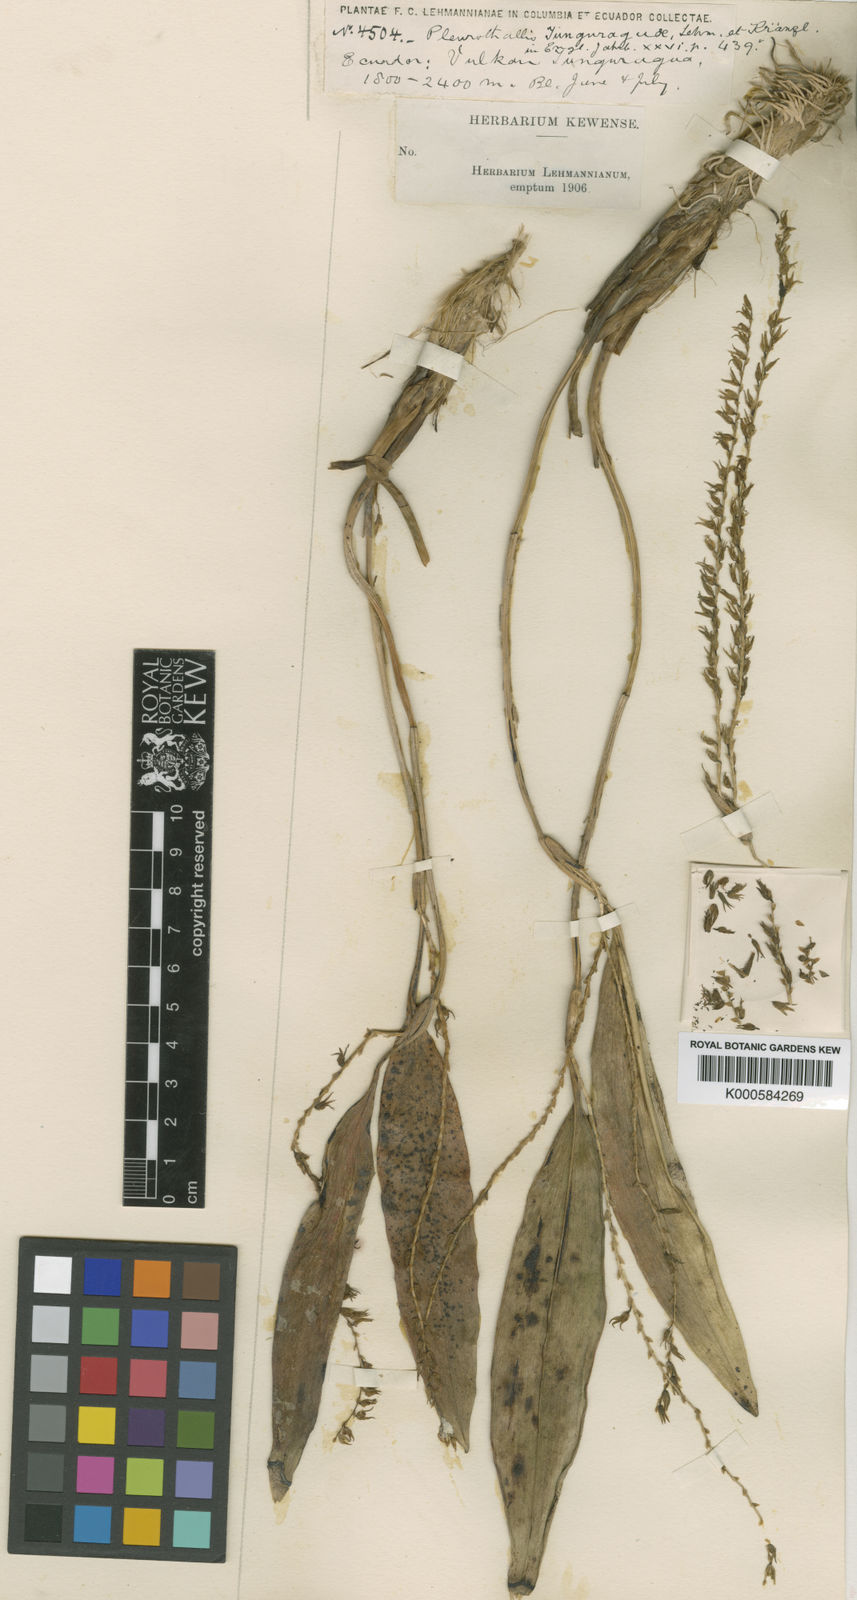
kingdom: Plantae
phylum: Tracheophyta
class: Liliopsida
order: Asparagales
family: Orchidaceae
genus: Stelis
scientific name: Stelis tunguraguae
